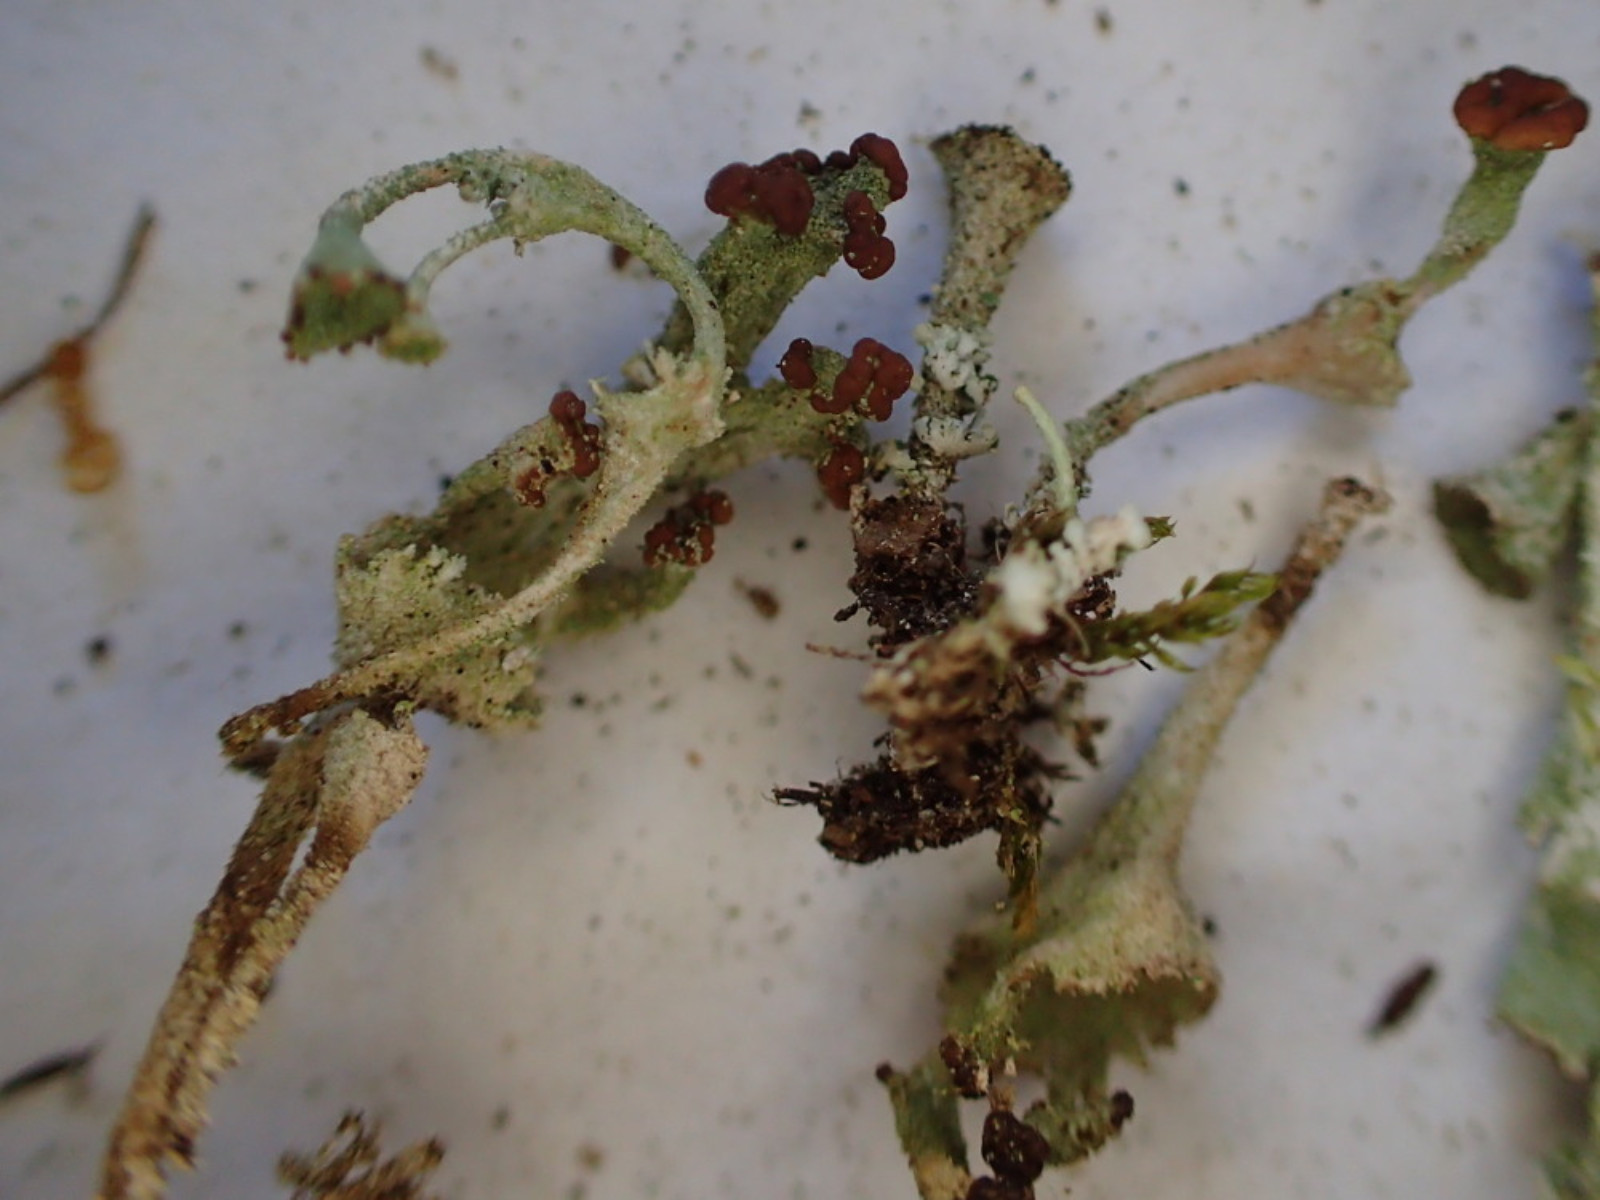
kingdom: Fungi
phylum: Ascomycota
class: Lecanoromycetes
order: Lecanorales
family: Cladoniaceae
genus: Cladonia
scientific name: Cladonia
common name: brungrøn bægerlav
